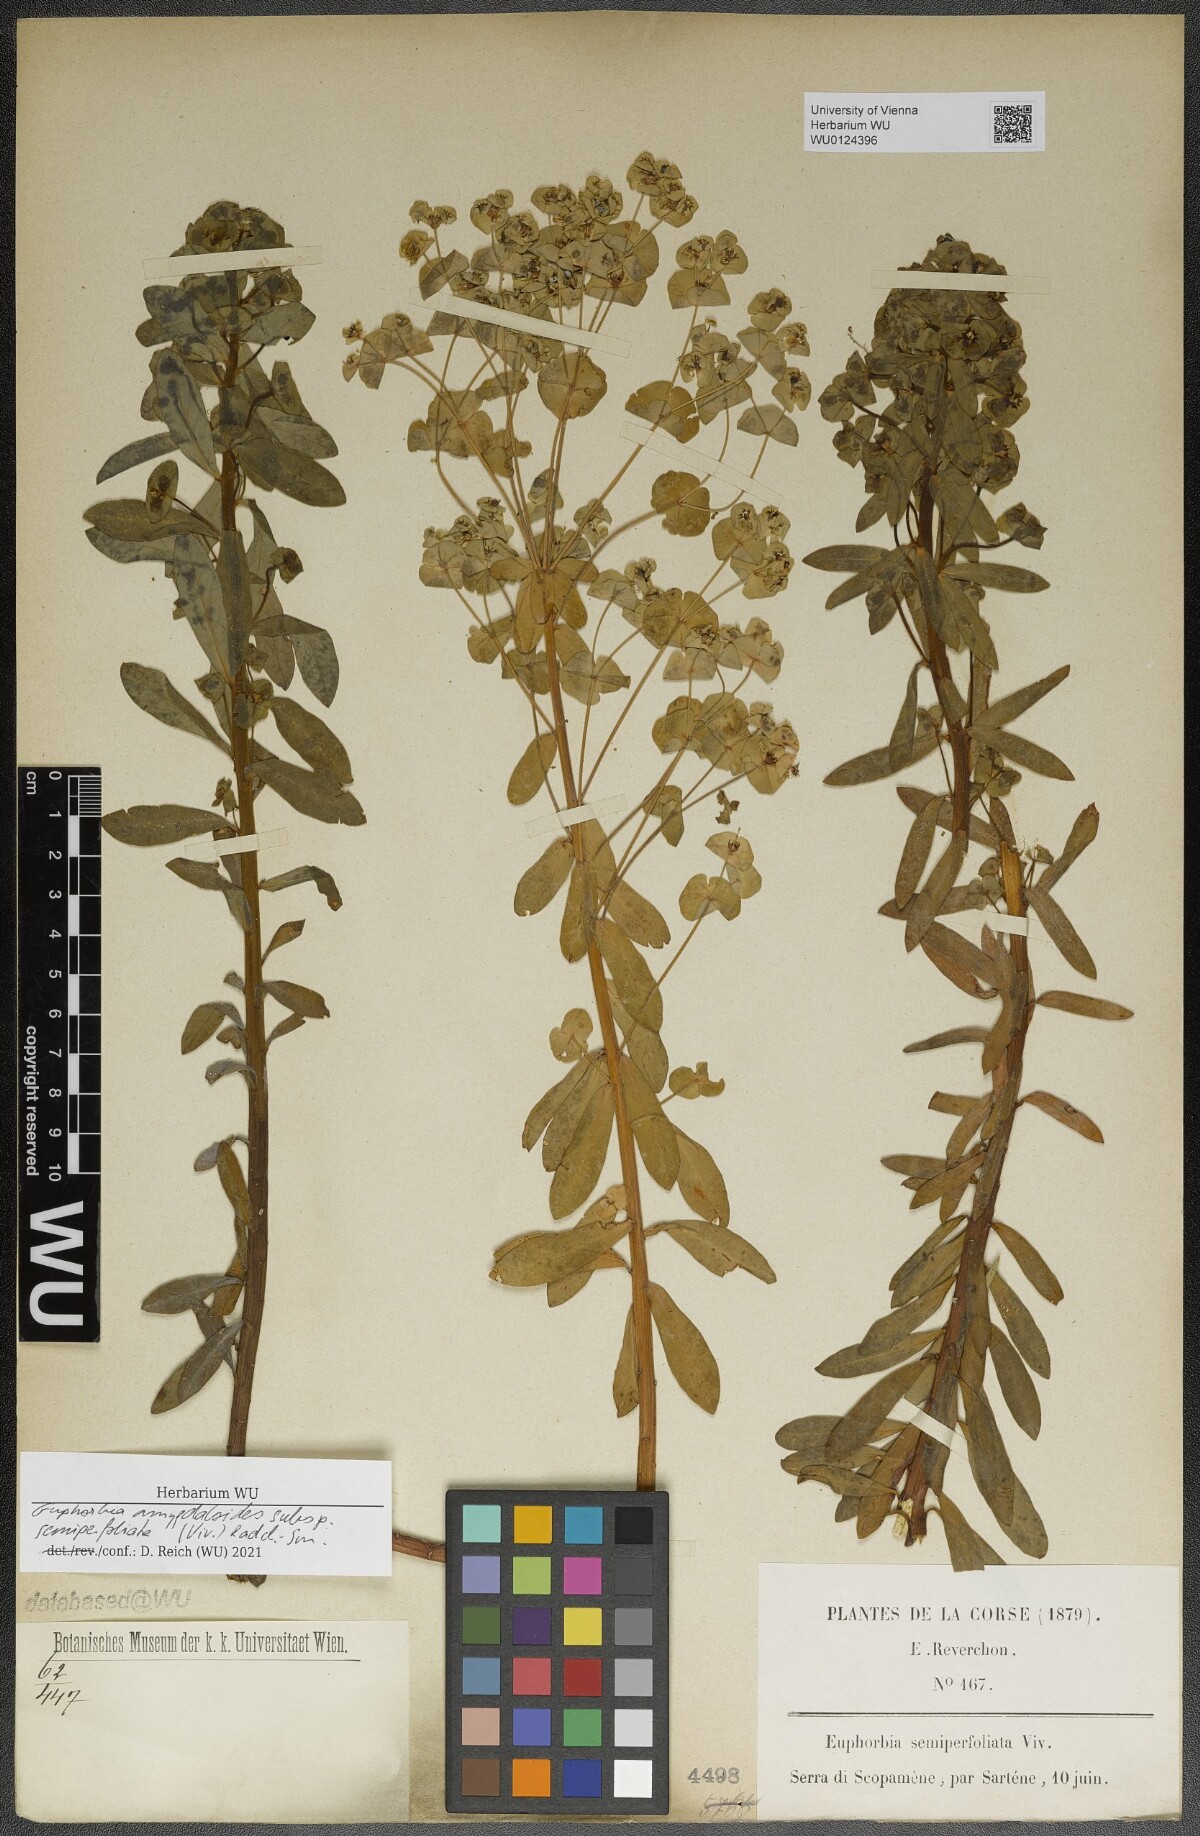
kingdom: Plantae
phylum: Tracheophyta
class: Magnoliopsida
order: Malpighiales
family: Euphorbiaceae
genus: Euphorbia
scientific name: Euphorbia semiperfoliata
